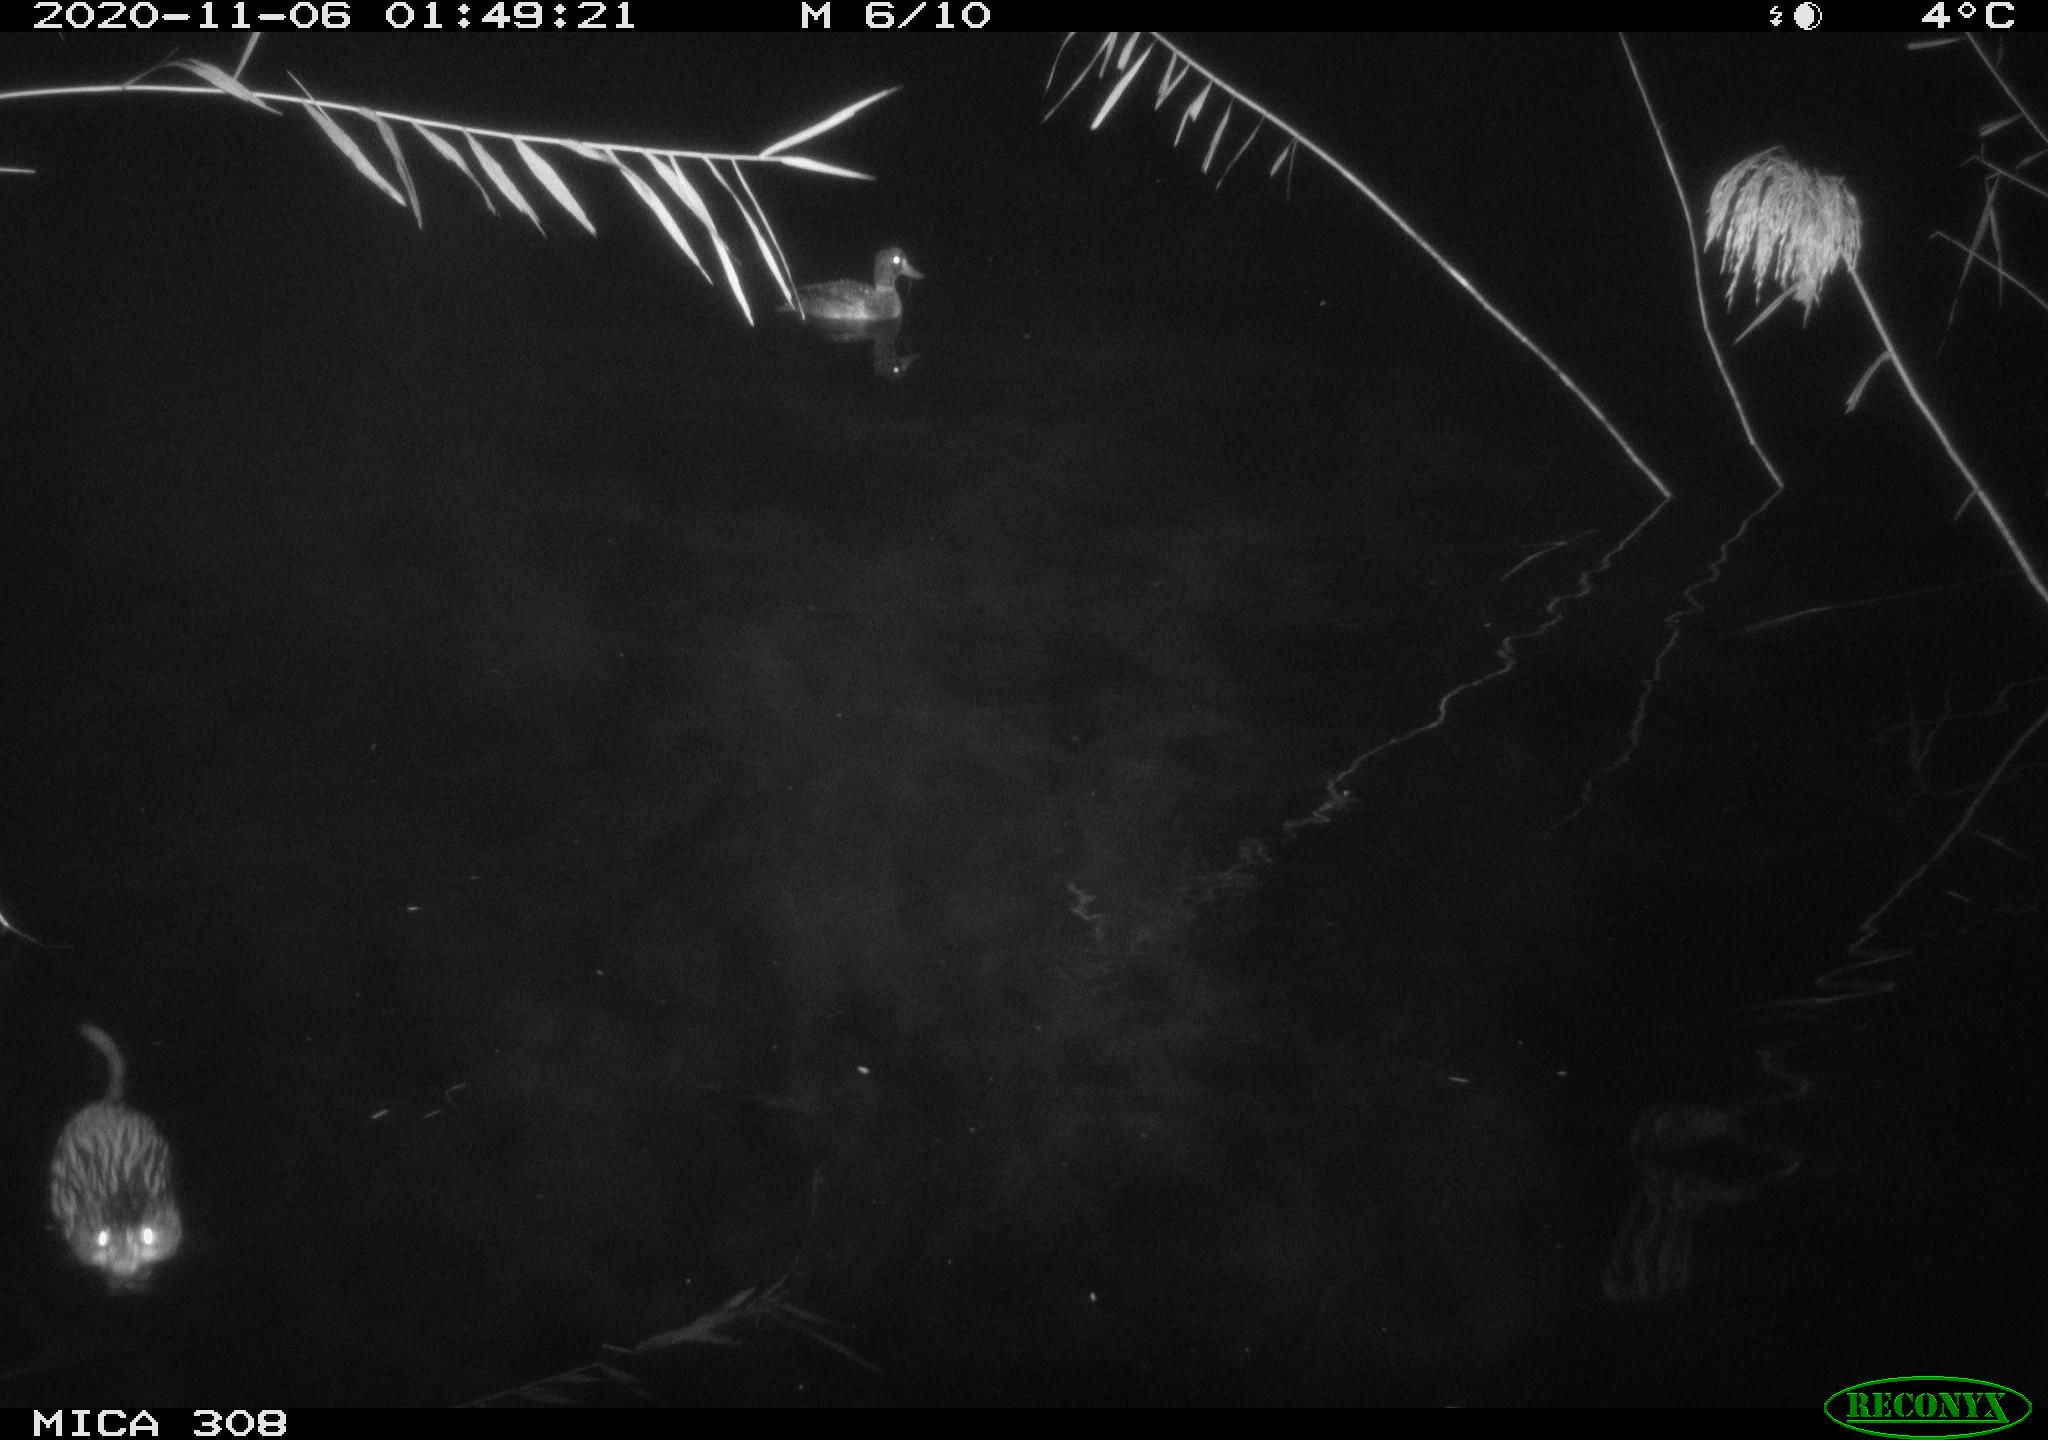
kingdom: Animalia
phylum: Chordata
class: Mammalia
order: Rodentia
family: Cricetidae
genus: Ondatra
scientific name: Ondatra zibethicus
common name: Muskrat
